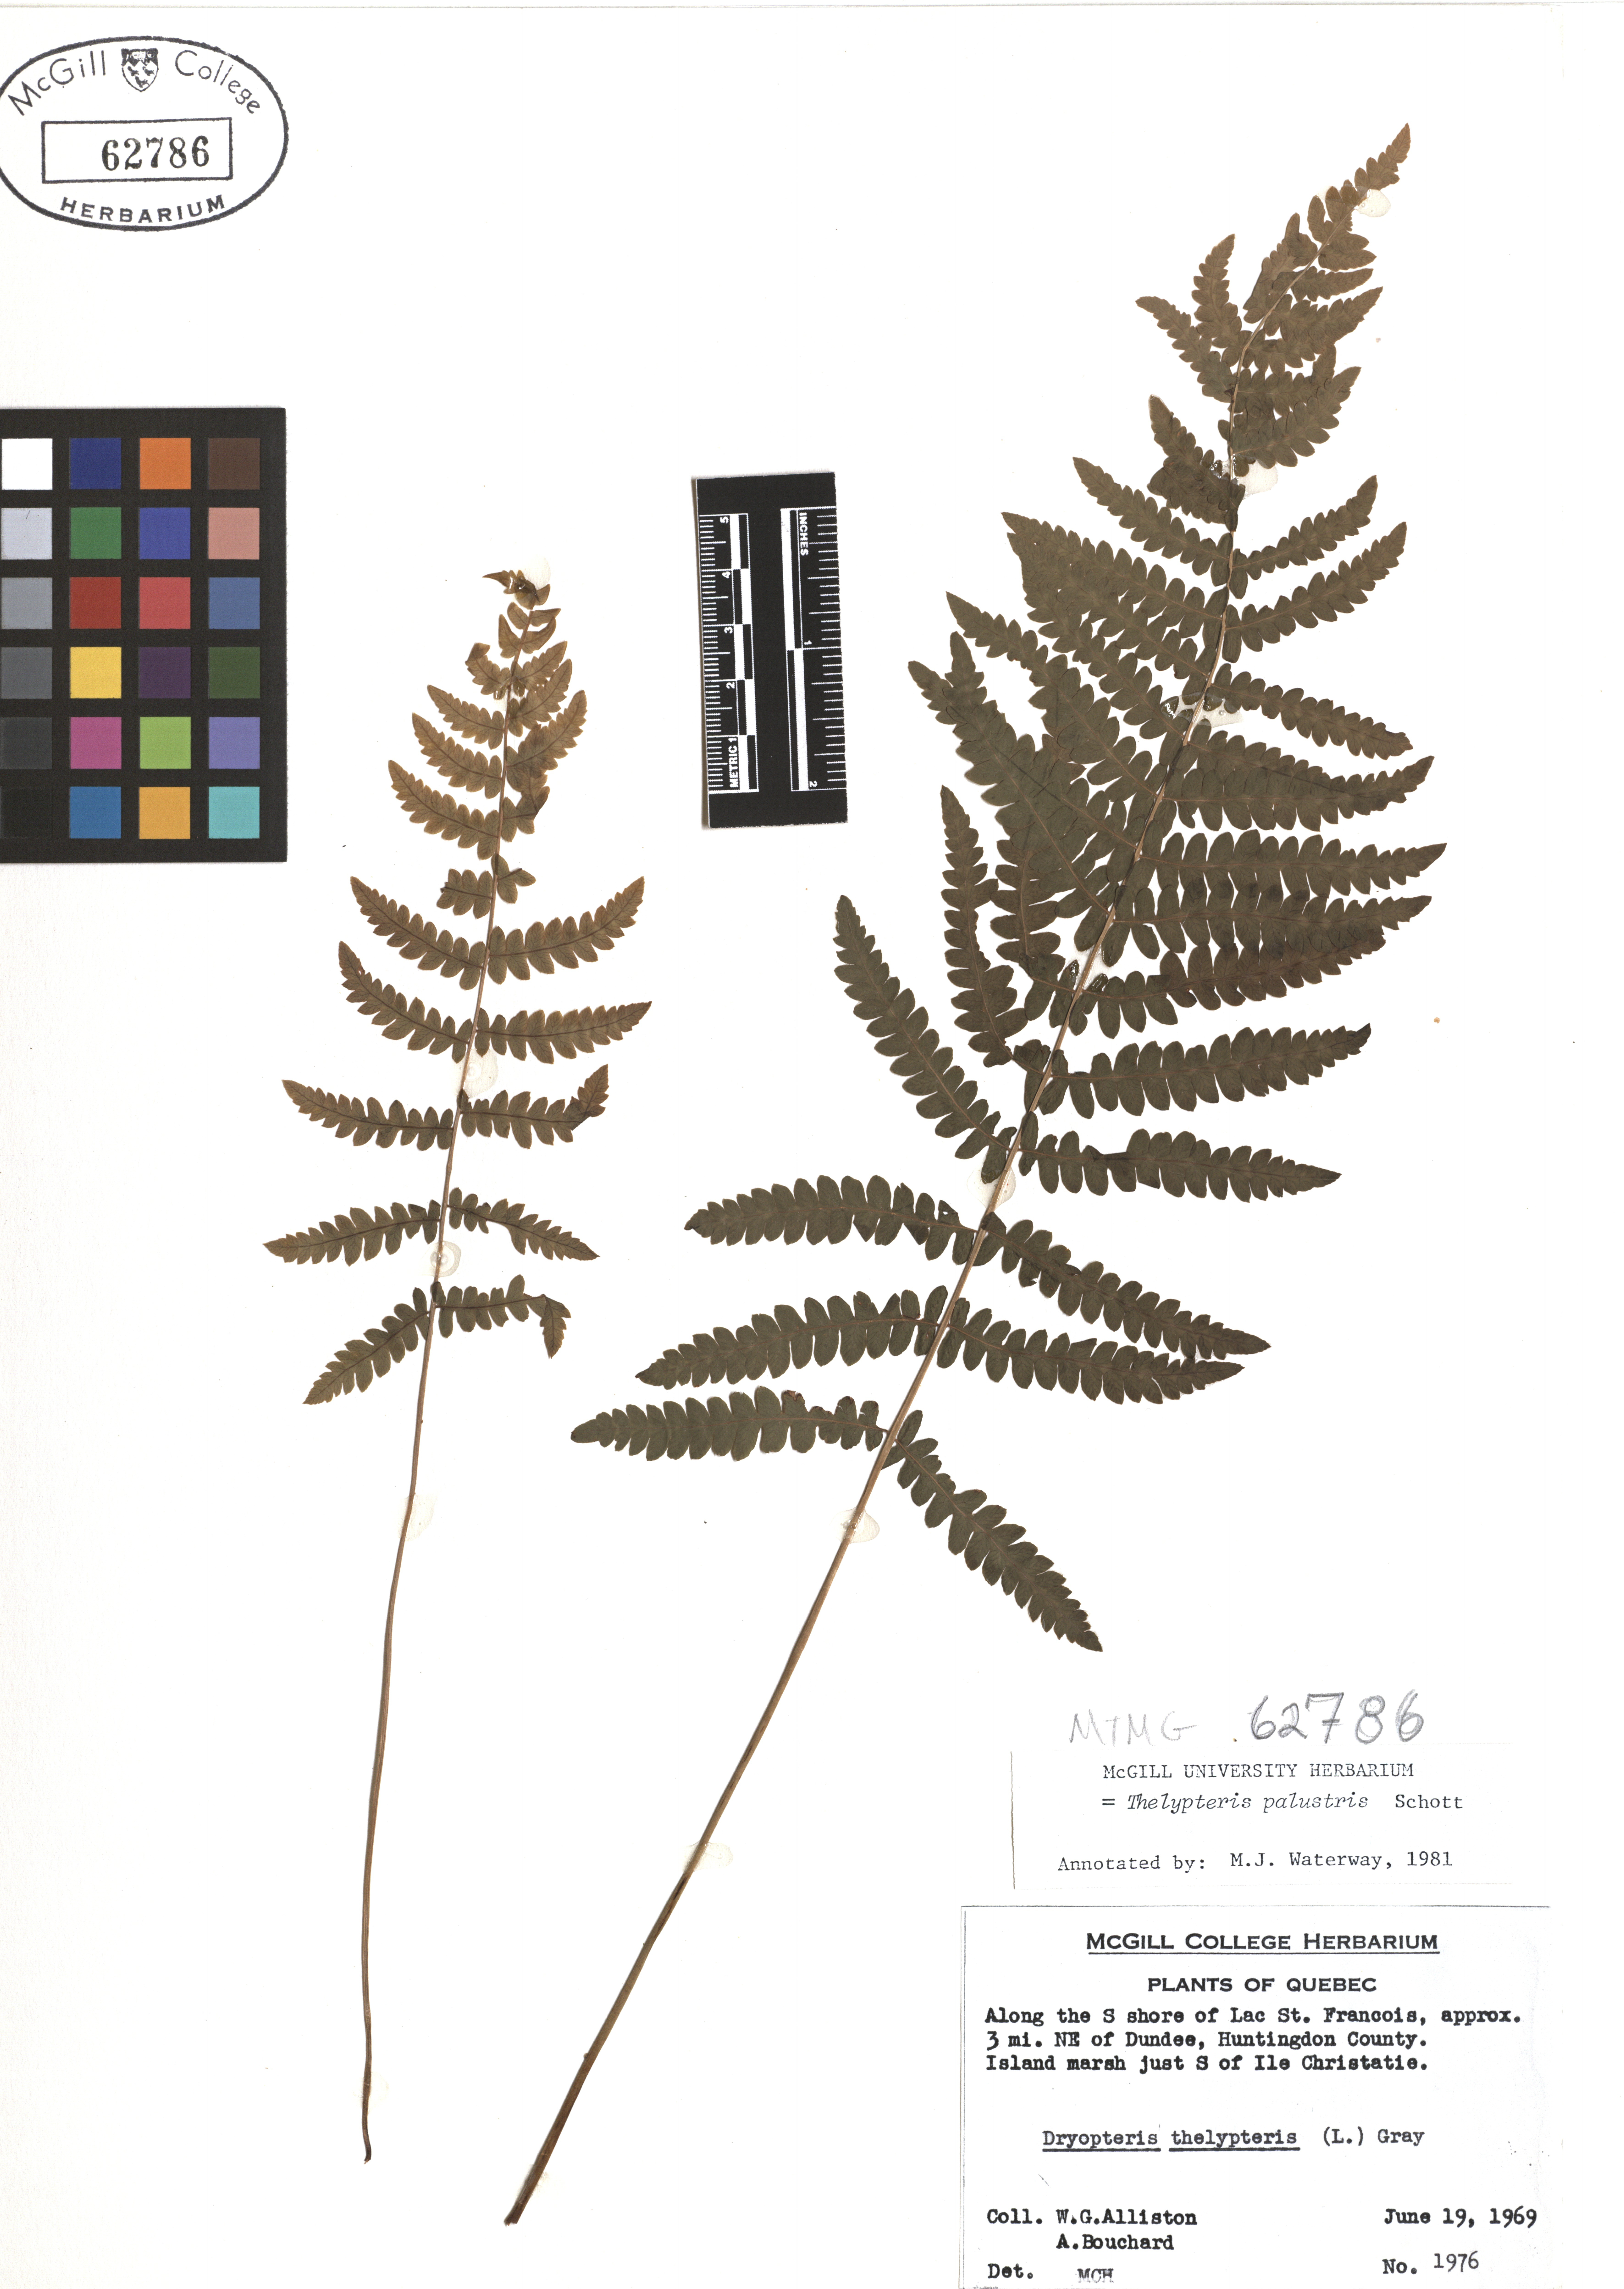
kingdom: Plantae
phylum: Tracheophyta
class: Polypodiopsida
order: Polypodiales
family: Thelypteridaceae
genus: Thelypteris
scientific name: Thelypteris palustris
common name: Marsh fern
